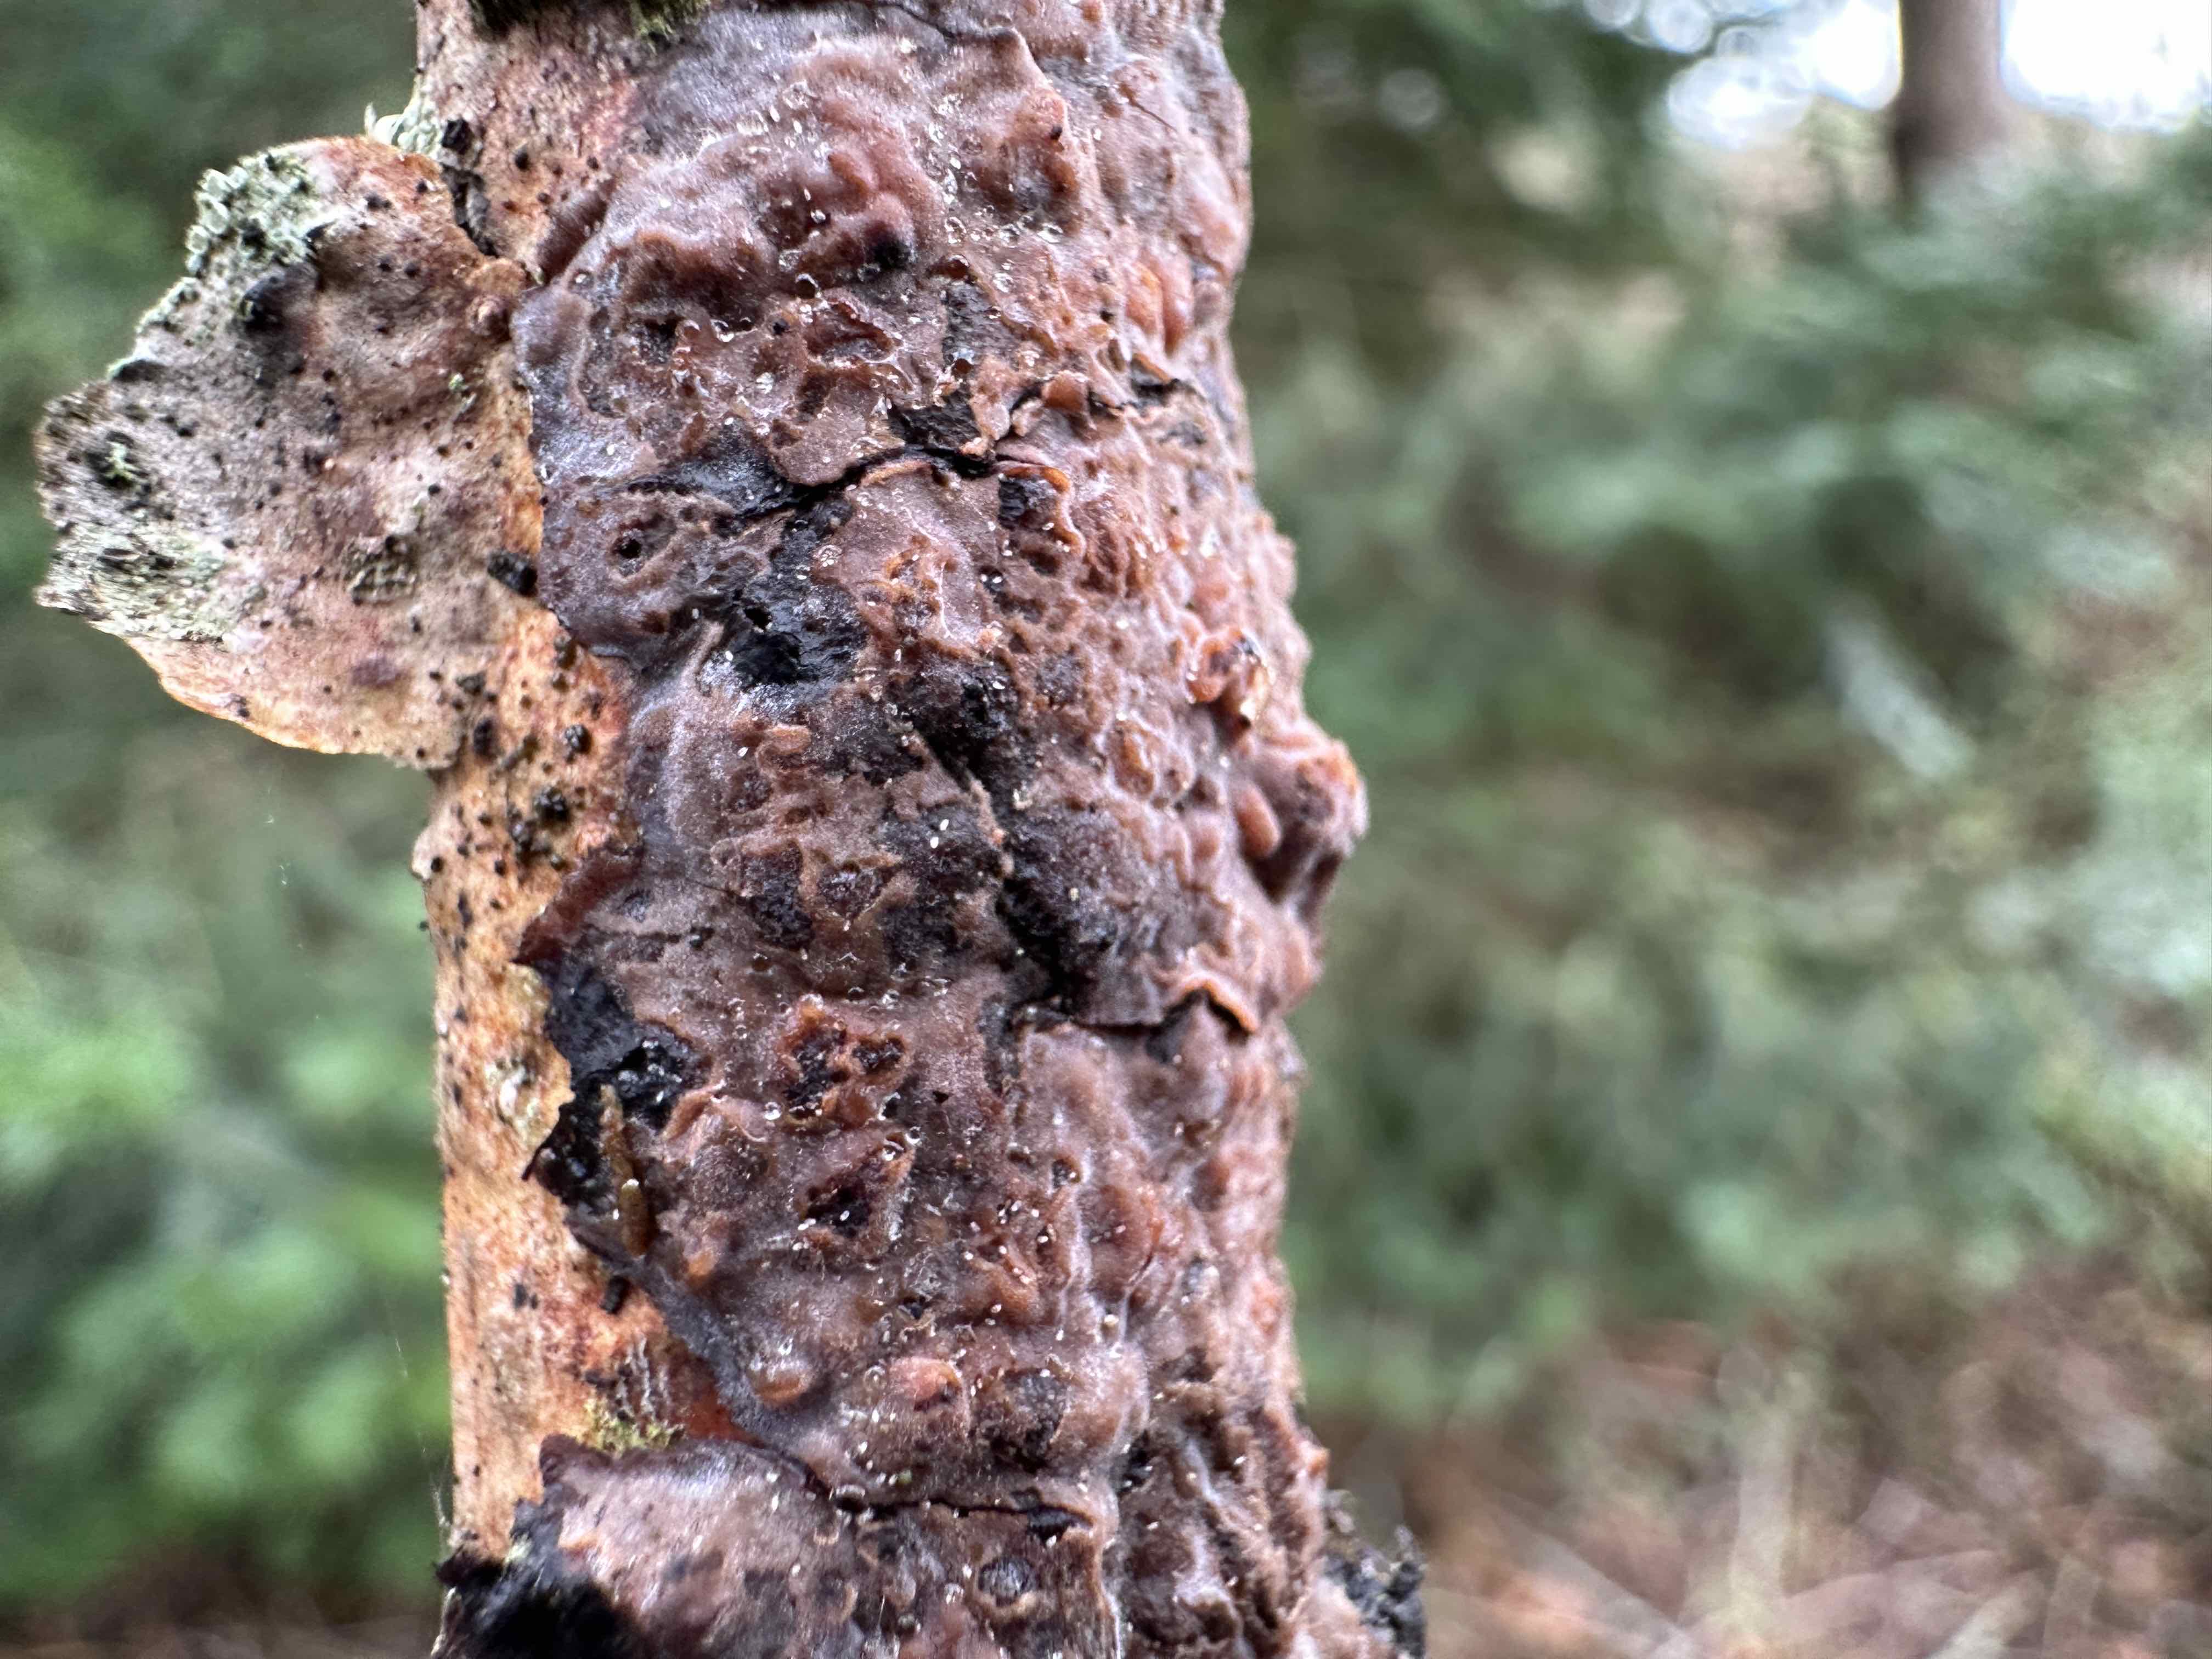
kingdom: Fungi
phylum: Basidiomycota
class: Agaricomycetes
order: Russulales
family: Peniophoraceae
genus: Peniophora
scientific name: Peniophora quercina
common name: ege-voksskind
